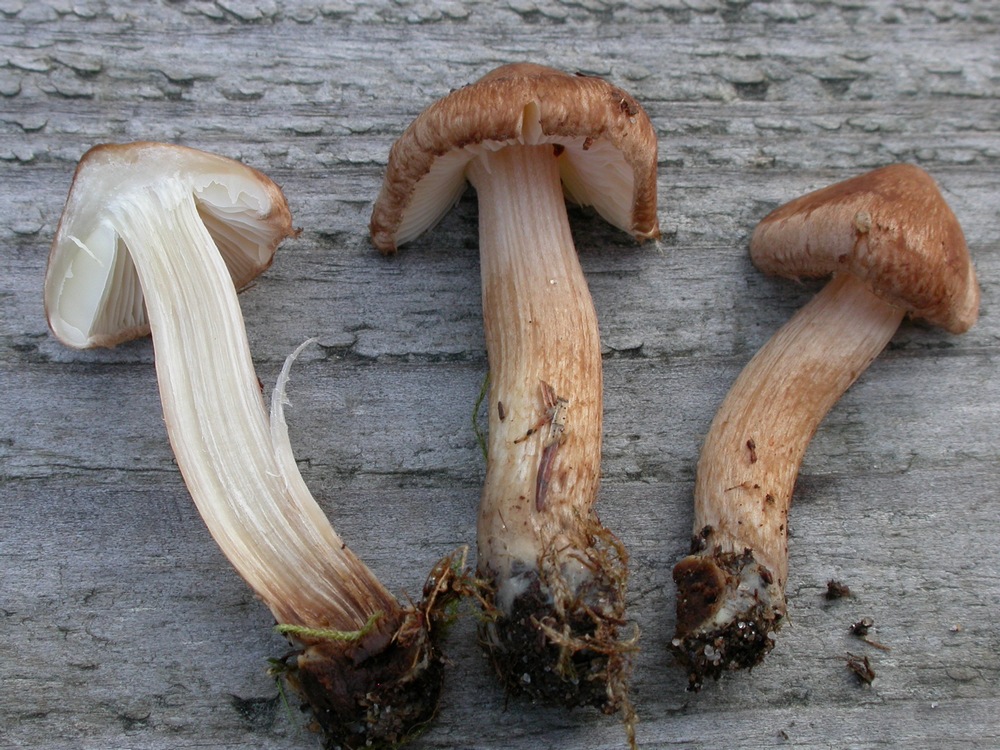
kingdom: Fungi
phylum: Basidiomycota
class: Agaricomycetes
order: Agaricales
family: Inocybaceae
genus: Inocybe
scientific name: Inocybe soluta
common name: lysbladet trævlhat
